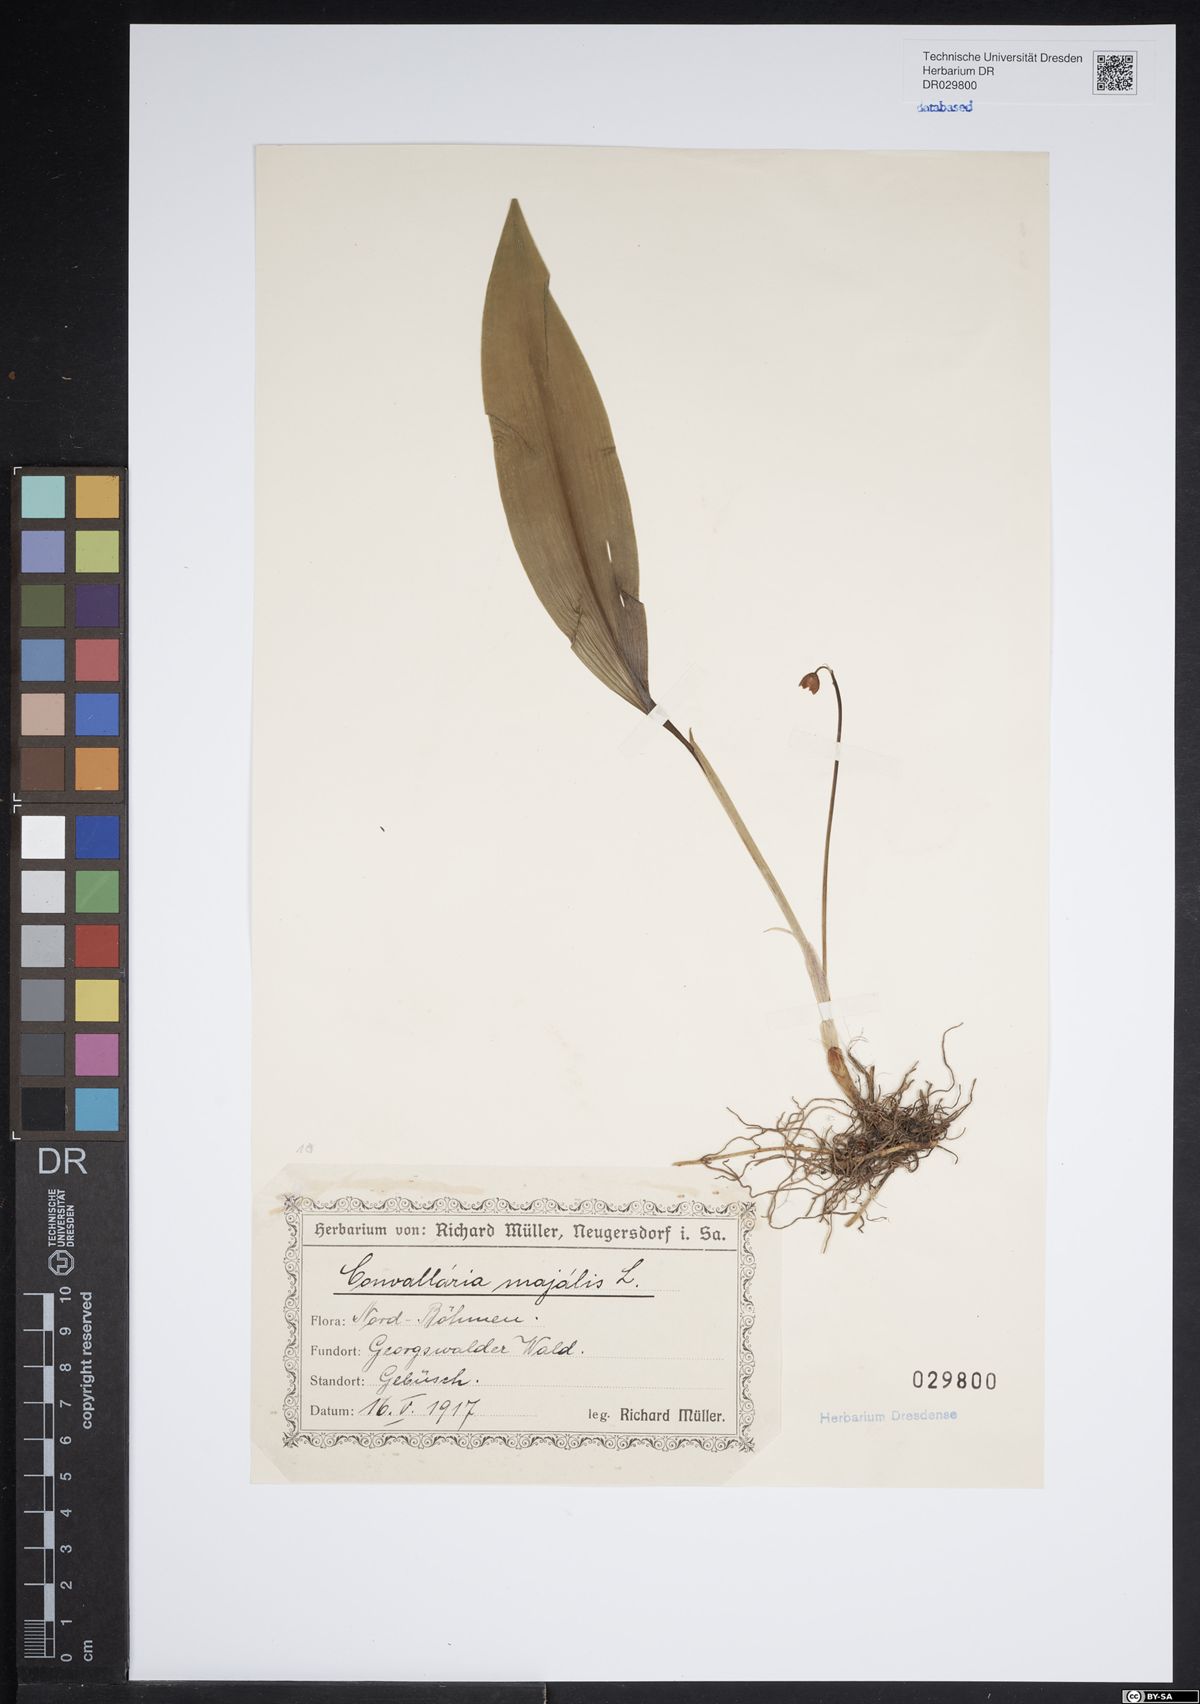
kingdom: Plantae
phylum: Tracheophyta
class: Liliopsida
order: Asparagales
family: Asparagaceae
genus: Convallaria
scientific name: Convallaria majalis
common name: Lily-of-the-valley
